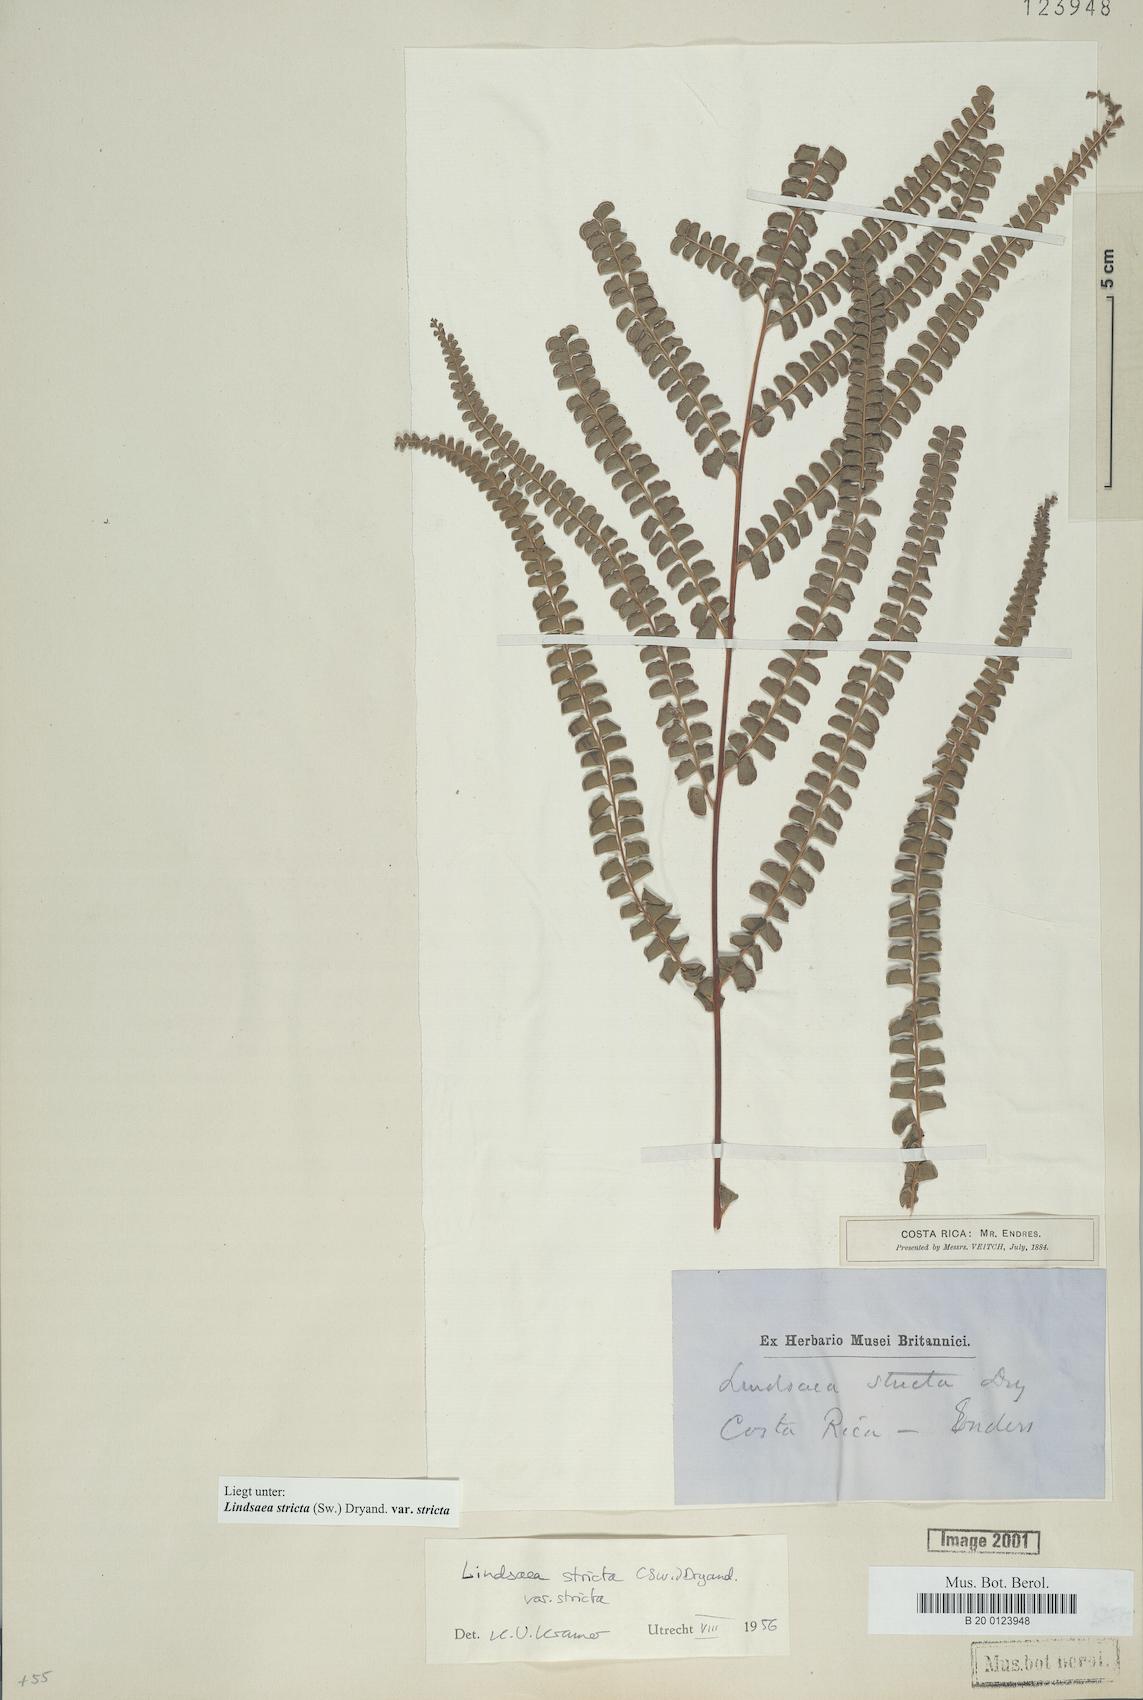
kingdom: Plantae
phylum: Tracheophyta
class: Polypodiopsida
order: Polypodiales
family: Lindsaeaceae
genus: Lindsaea
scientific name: Lindsaea stricta
